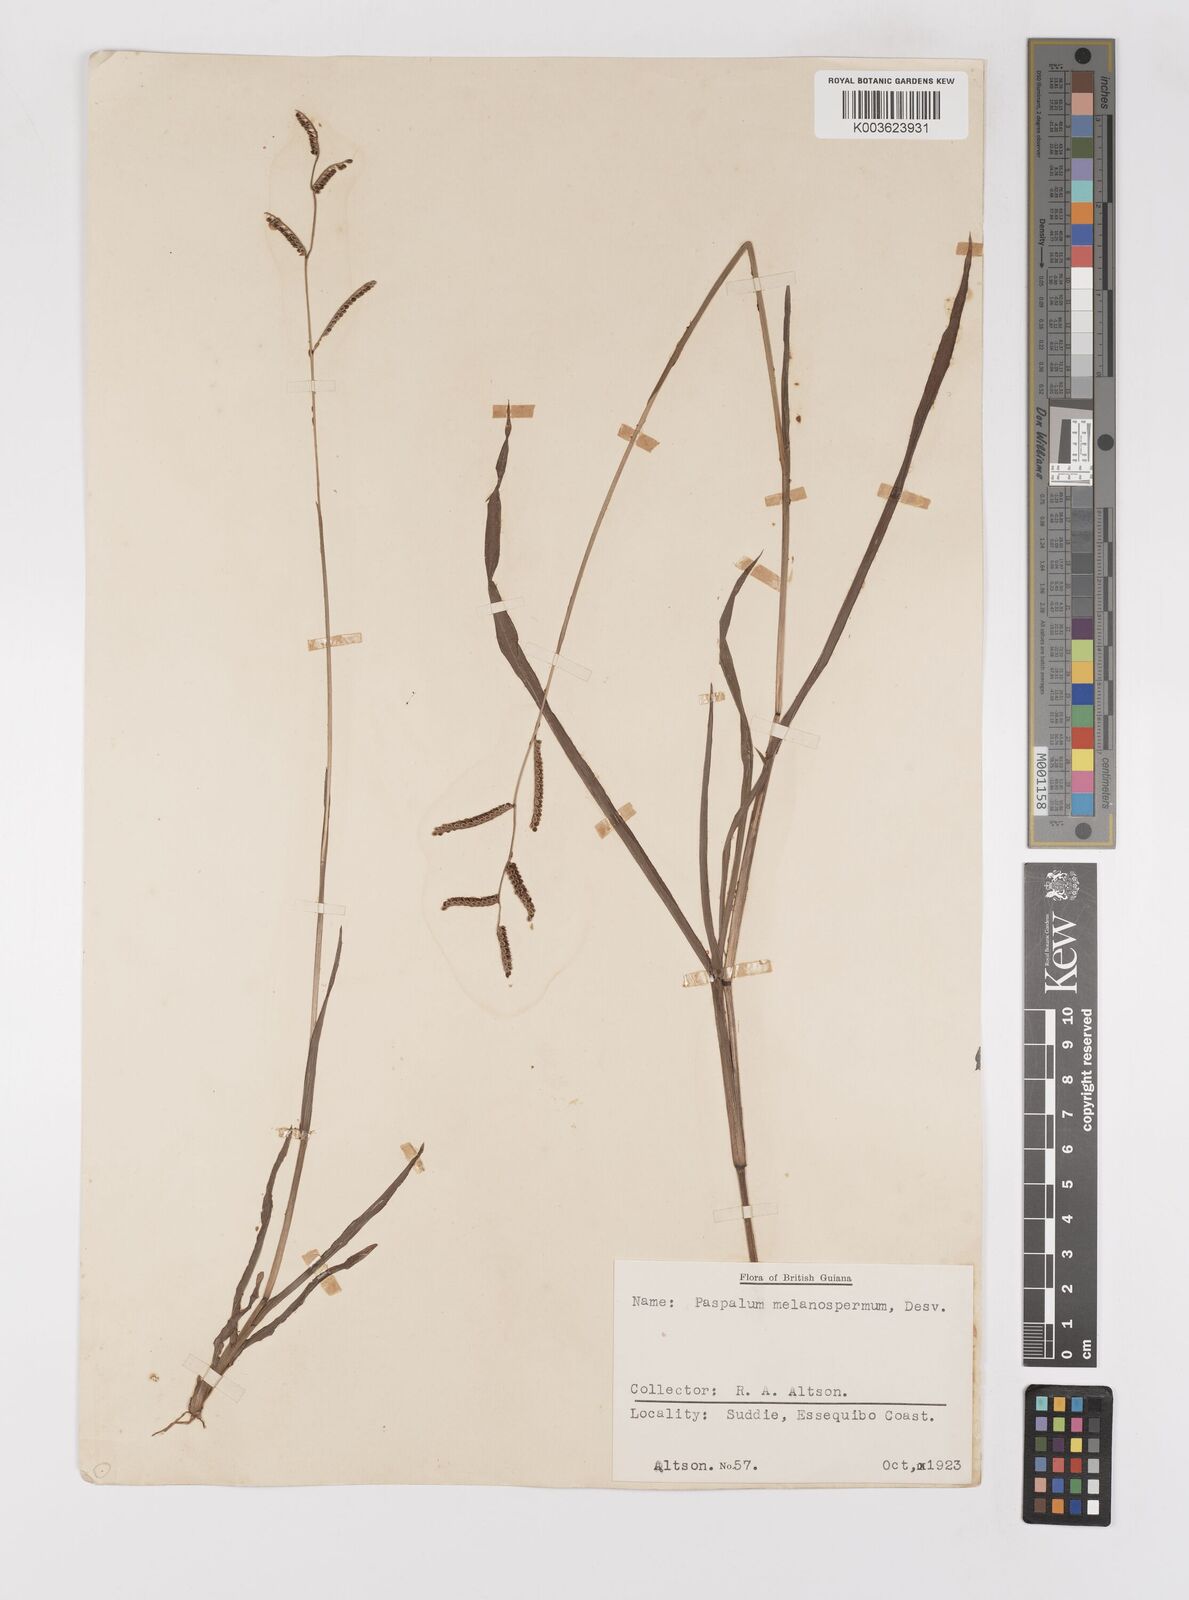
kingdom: Plantae
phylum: Tracheophyta
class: Liliopsida
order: Poales
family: Poaceae
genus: Paspalum
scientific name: Paspalum melanospermum
